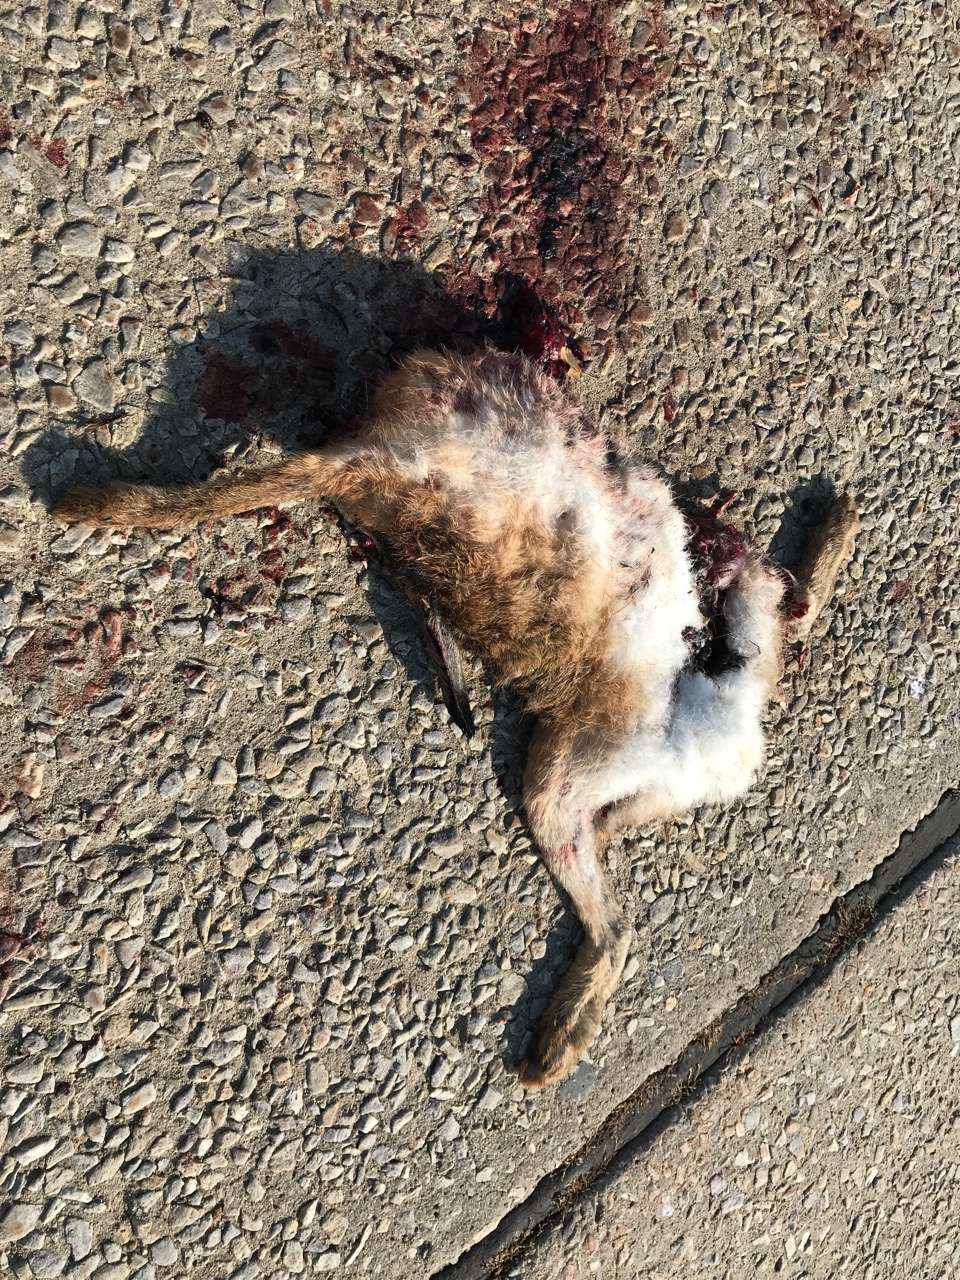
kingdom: Animalia
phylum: Chordata
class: Mammalia
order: Lagomorpha
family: Leporidae
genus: Lepus
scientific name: Lepus europaeus
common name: European hare
